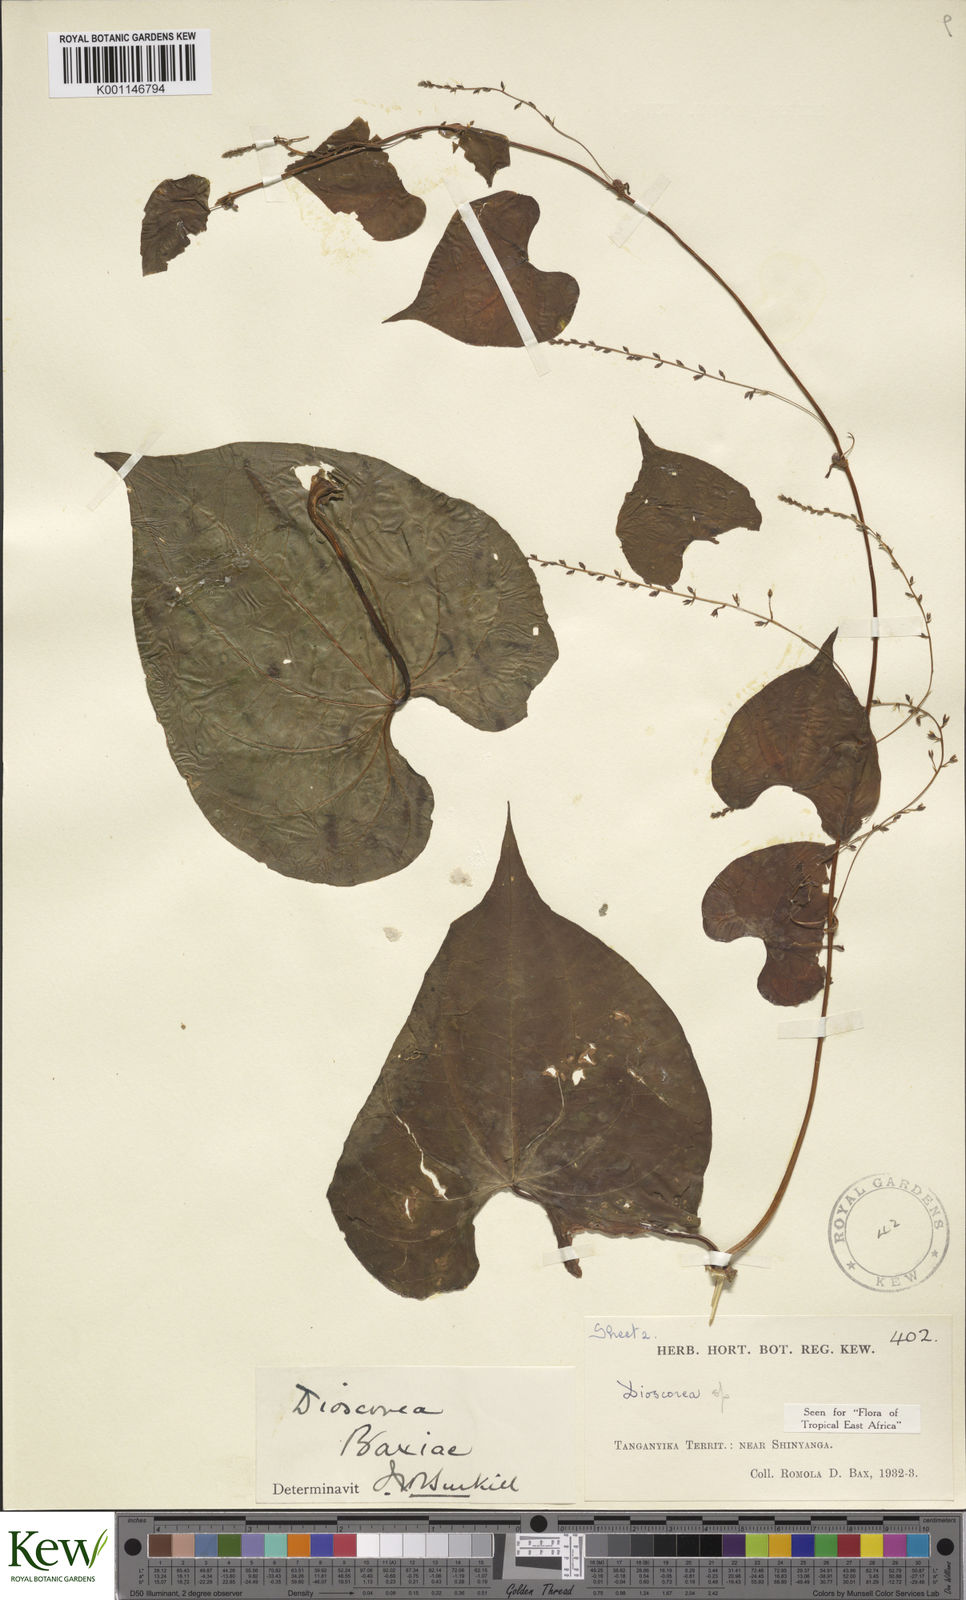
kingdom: Plantae
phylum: Tracheophyta
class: Liliopsida
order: Dioscoreales
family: Dioscoreaceae
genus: Dioscorea
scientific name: Dioscorea asteriscus
